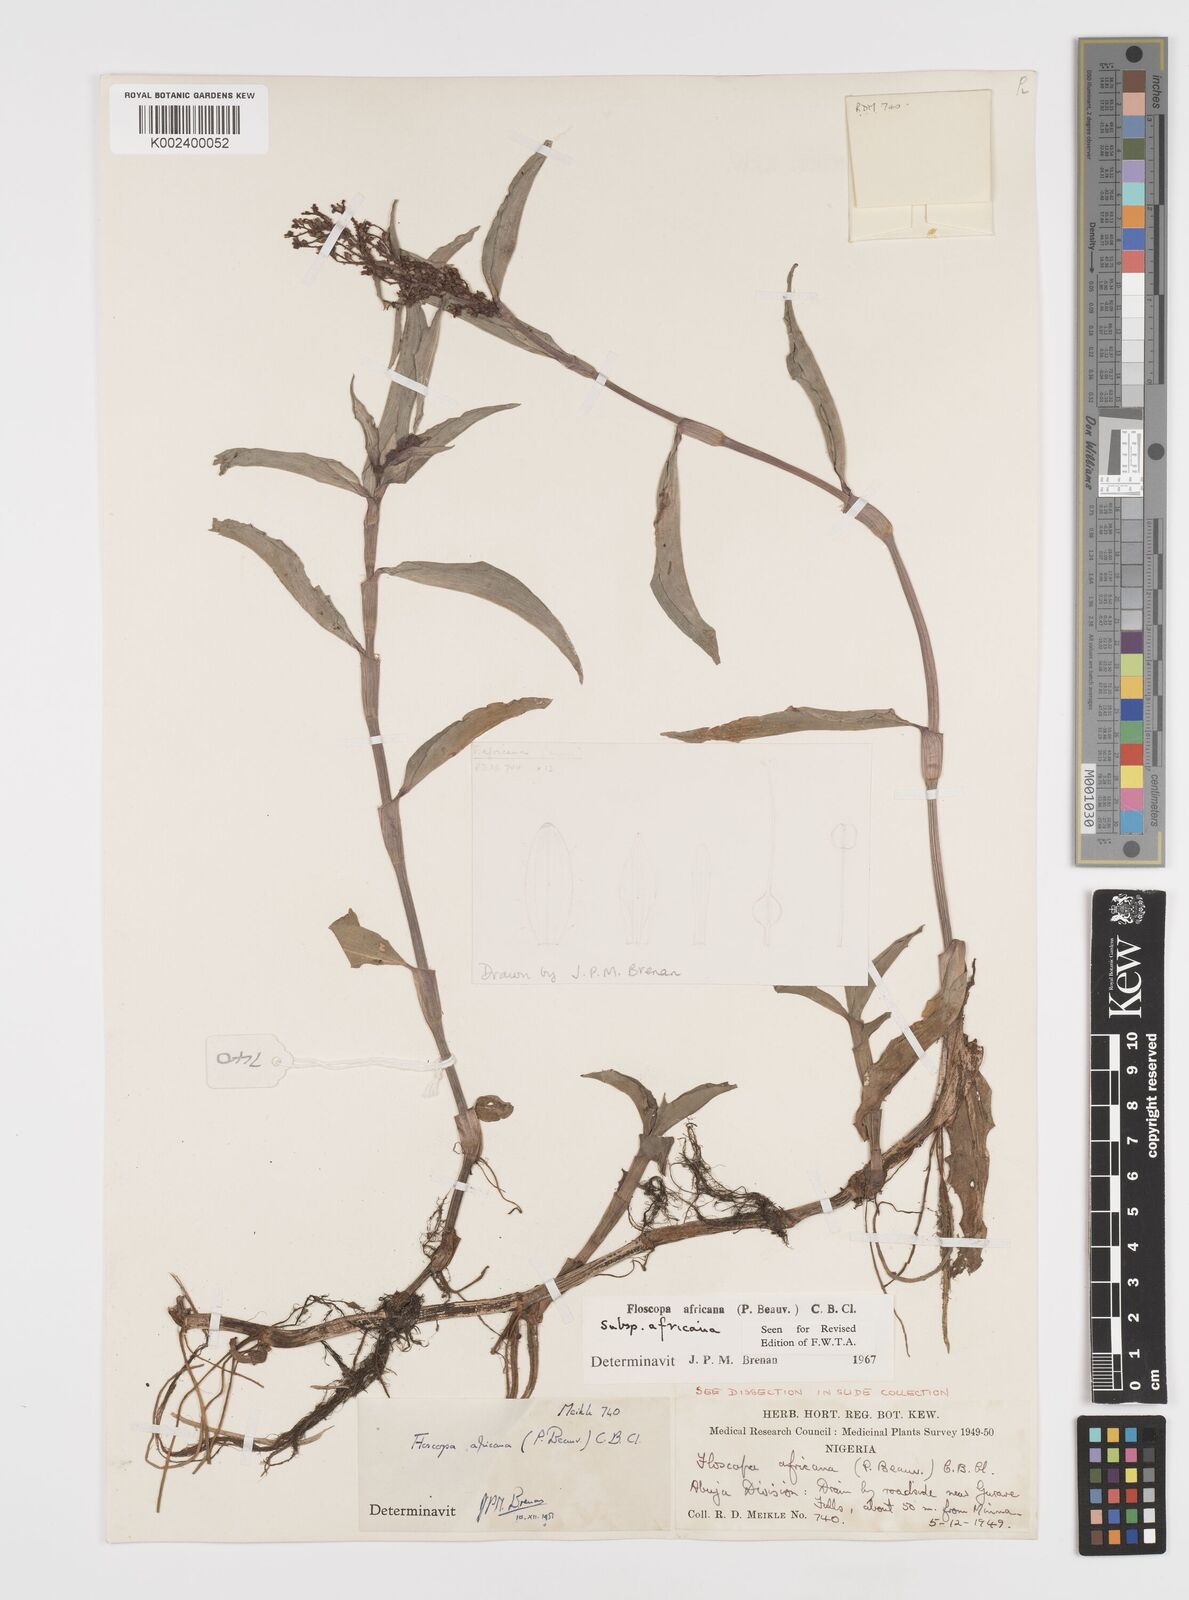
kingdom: Plantae
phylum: Tracheophyta
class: Liliopsida
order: Commelinales
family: Commelinaceae
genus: Floscopa
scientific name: Floscopa africana
